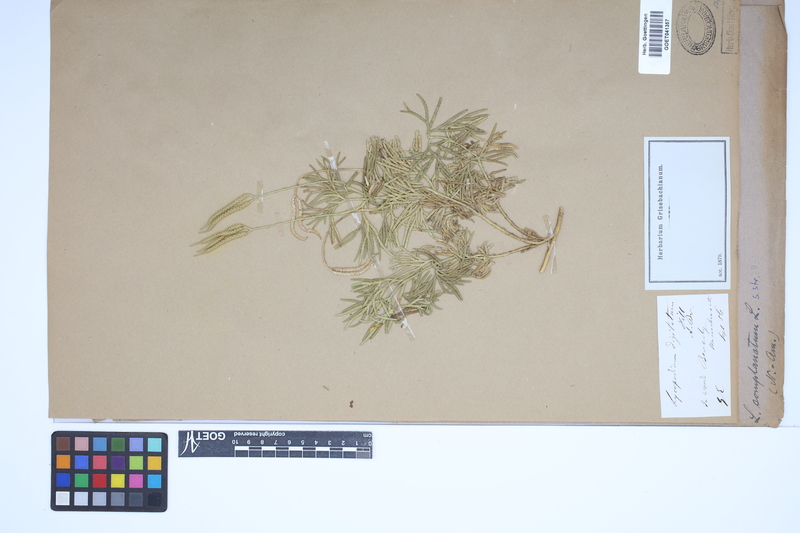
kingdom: Plantae
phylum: Tracheophyta
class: Lycopodiopsida
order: Lycopodiales
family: Lycopodiaceae
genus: Diphasiastrum
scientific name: Diphasiastrum complanatum
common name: Northern running-pine
